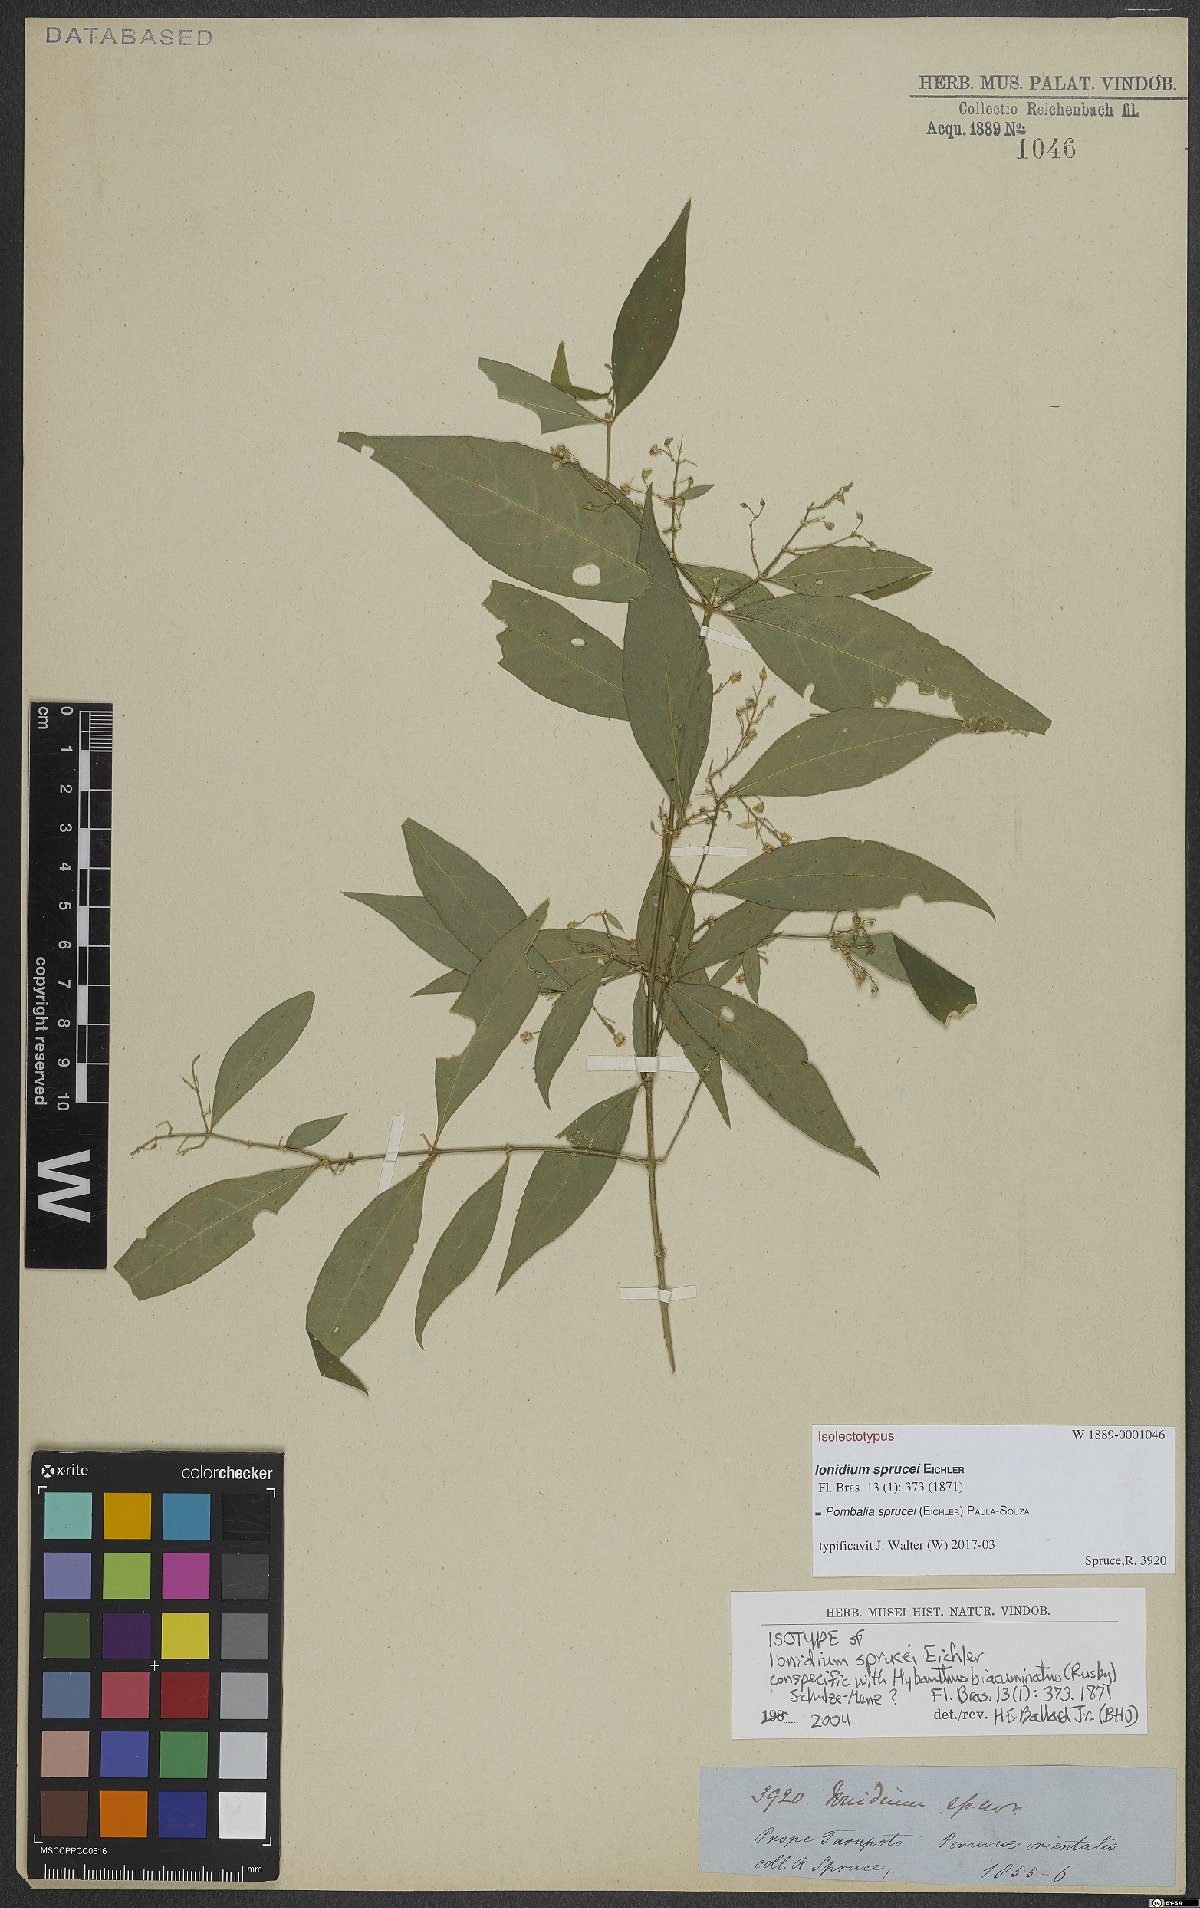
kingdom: Plantae
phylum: Tracheophyta
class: Magnoliopsida
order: Malpighiales
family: Violaceae
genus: Pombalia
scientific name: Pombalia sprucei
